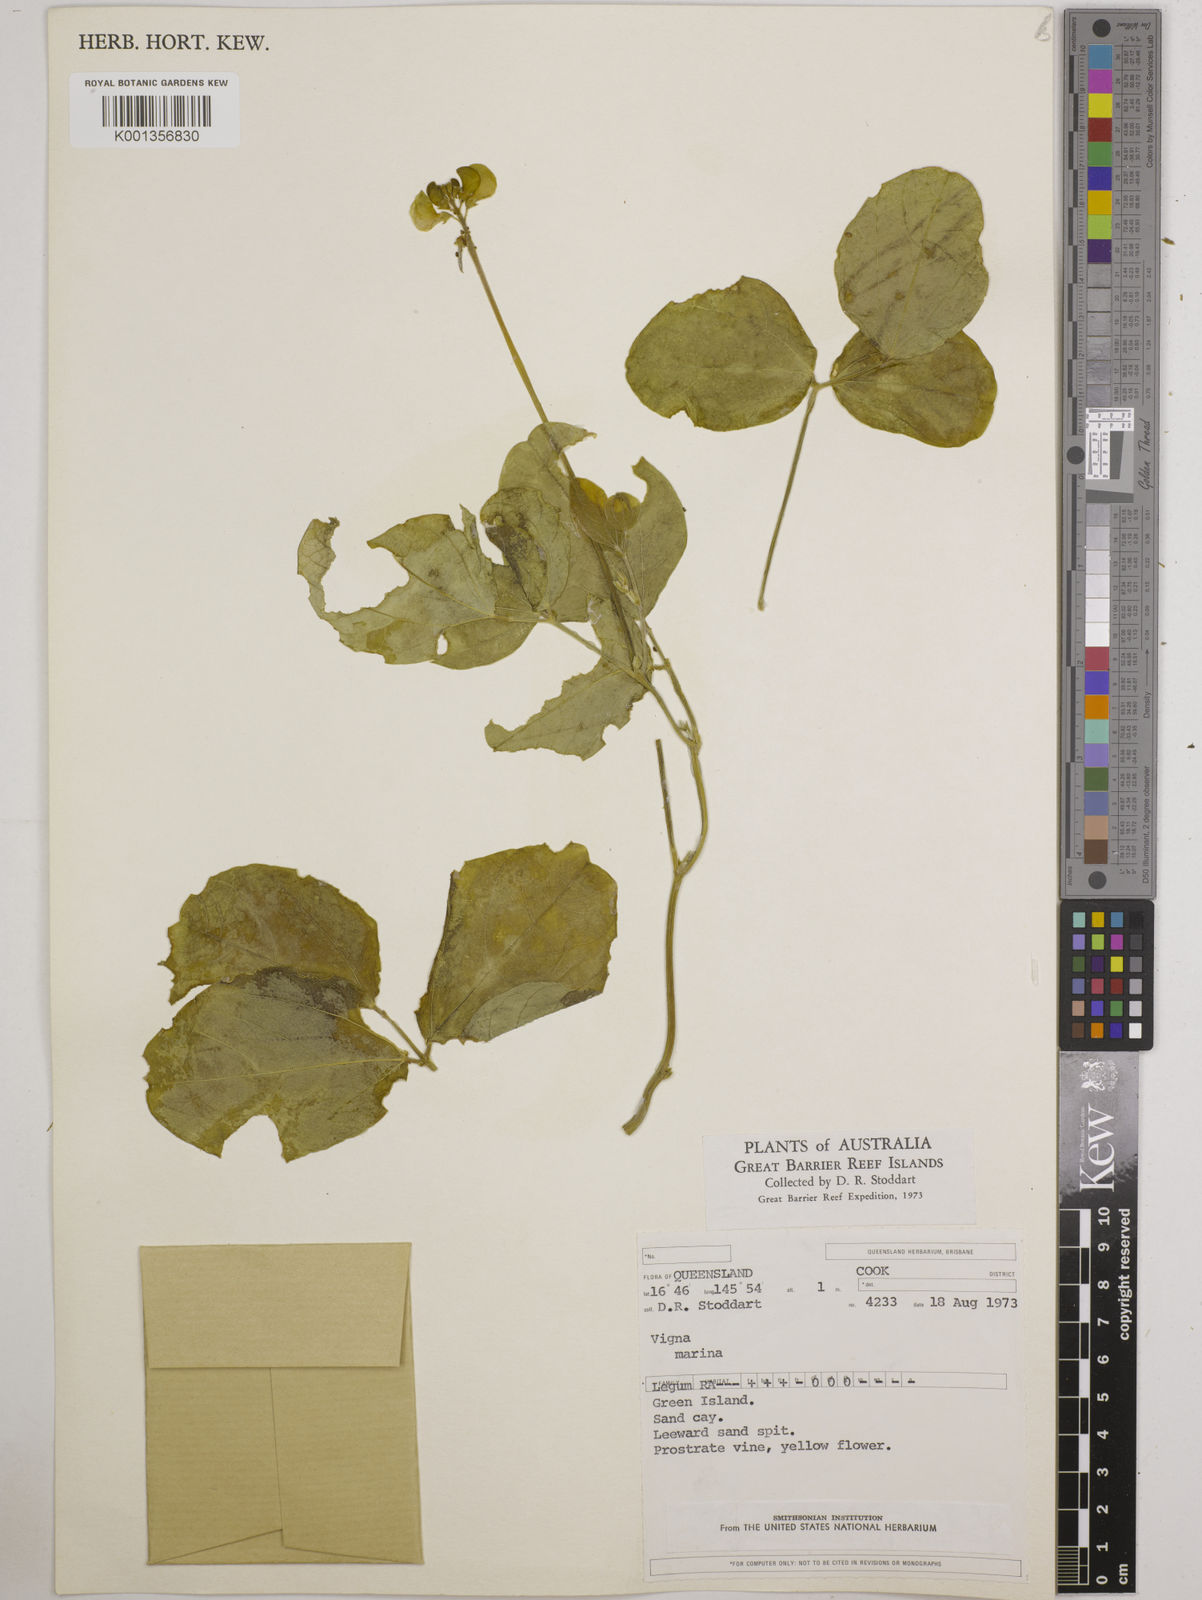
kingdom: Plantae
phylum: Tracheophyta
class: Magnoliopsida
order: Fabales
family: Fabaceae
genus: Vigna
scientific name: Vigna marina
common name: Dune-bean
